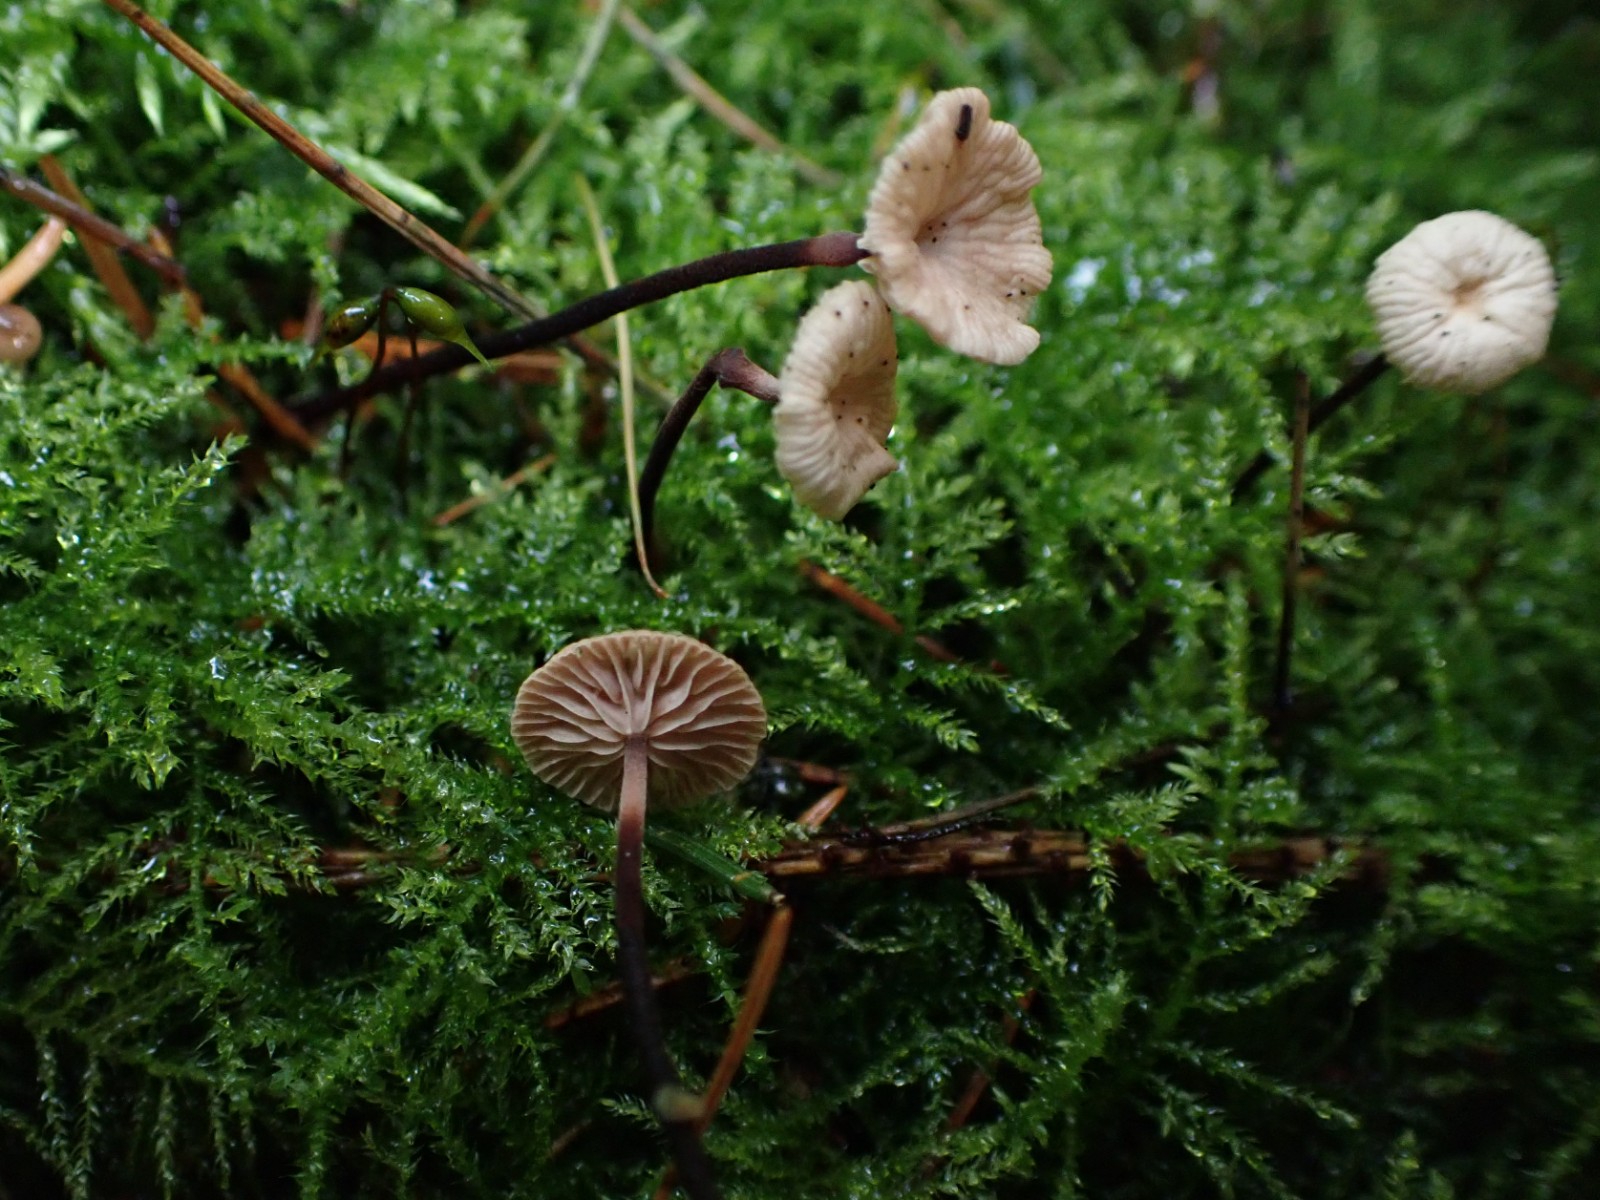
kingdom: Fungi
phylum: Basidiomycota
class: Agaricomycetes
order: Agaricales
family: Omphalotaceae
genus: Paragymnopus
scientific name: Paragymnopus perforans
